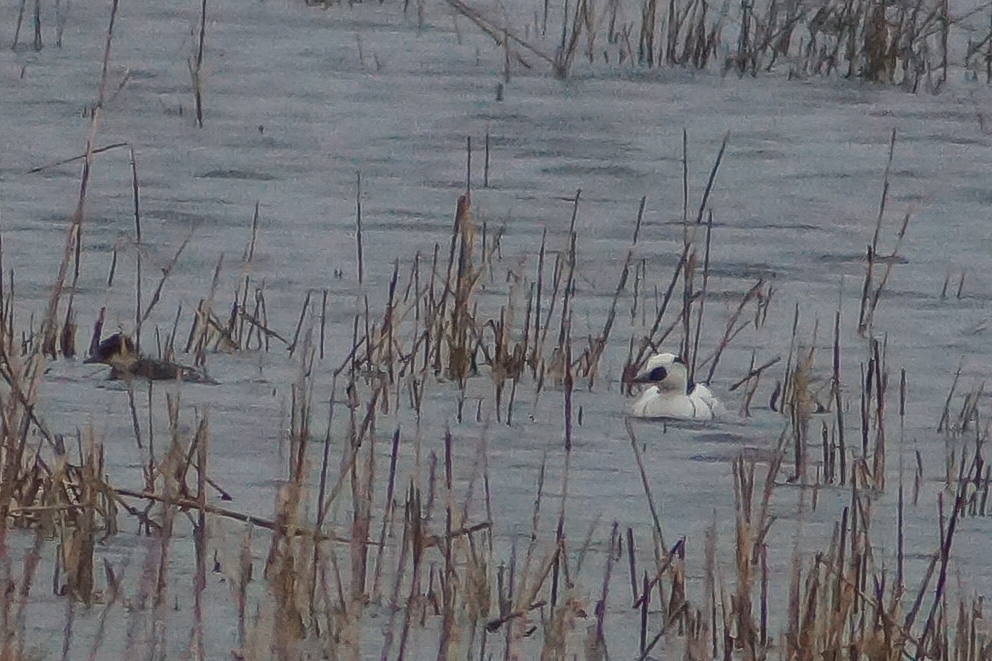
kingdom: Animalia
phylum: Chordata
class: Aves
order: Anseriformes
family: Anatidae
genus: Mergellus
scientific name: Mergellus albellus
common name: Lille skallesluger
